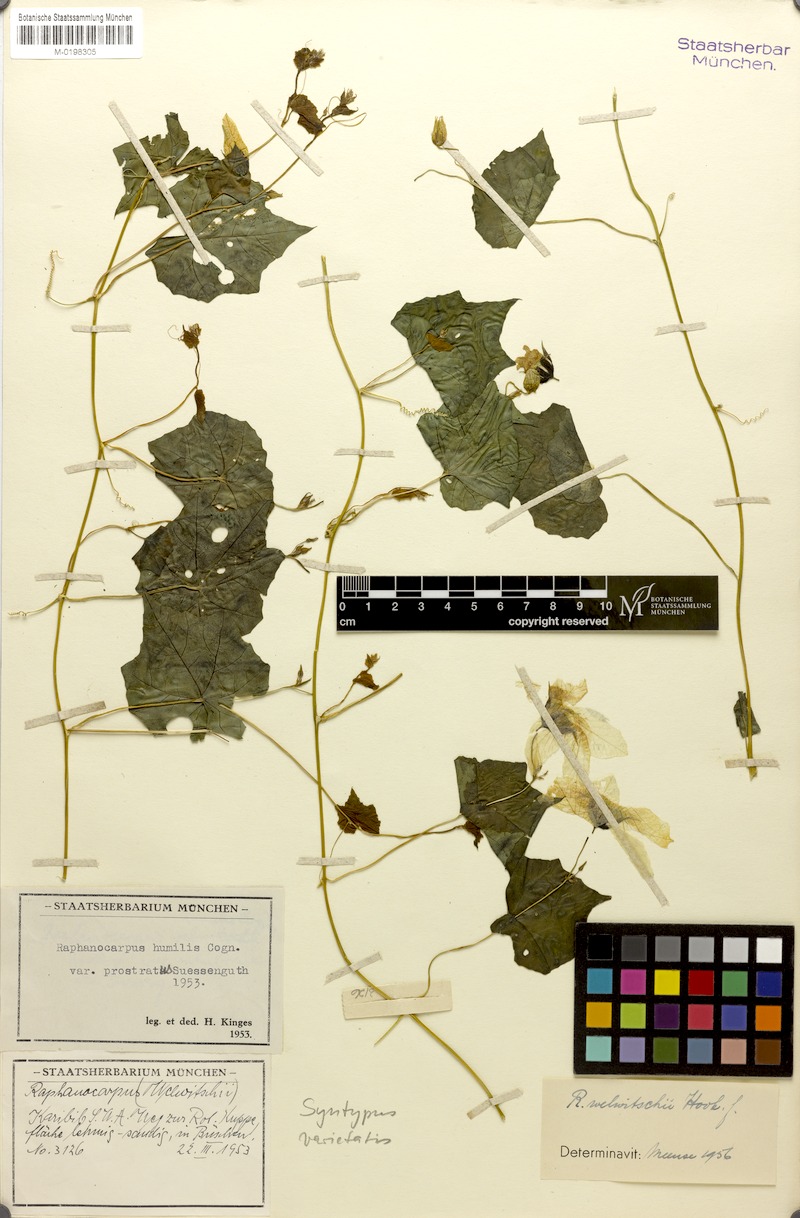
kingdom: Plantae
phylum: Tracheophyta
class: Magnoliopsida
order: Cucurbitales
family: Cucurbitaceae
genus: Momordica
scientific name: Momordica humilis
